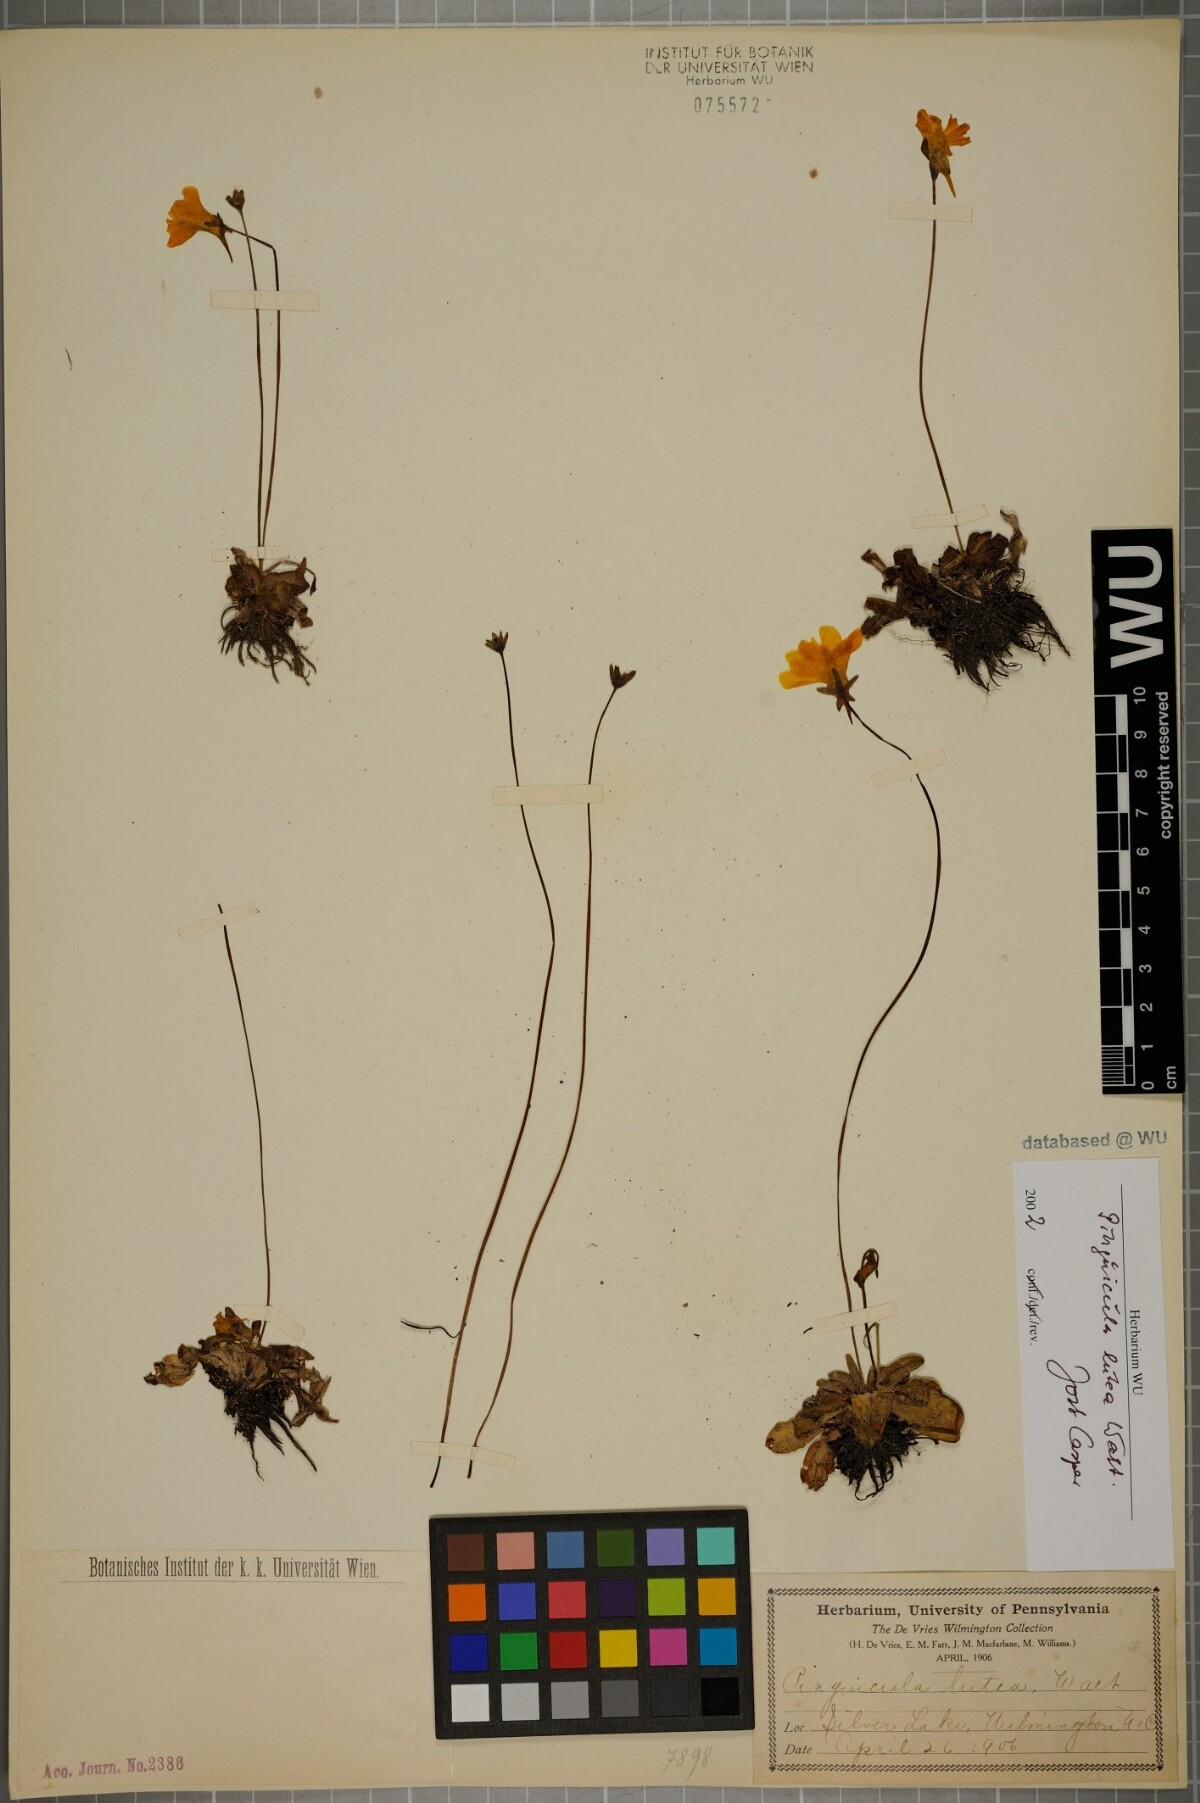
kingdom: Plantae
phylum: Tracheophyta
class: Magnoliopsida
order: Lamiales
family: Lentibulariaceae
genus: Pinguicula
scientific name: Pinguicula lutea
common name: Yellow butterwort
